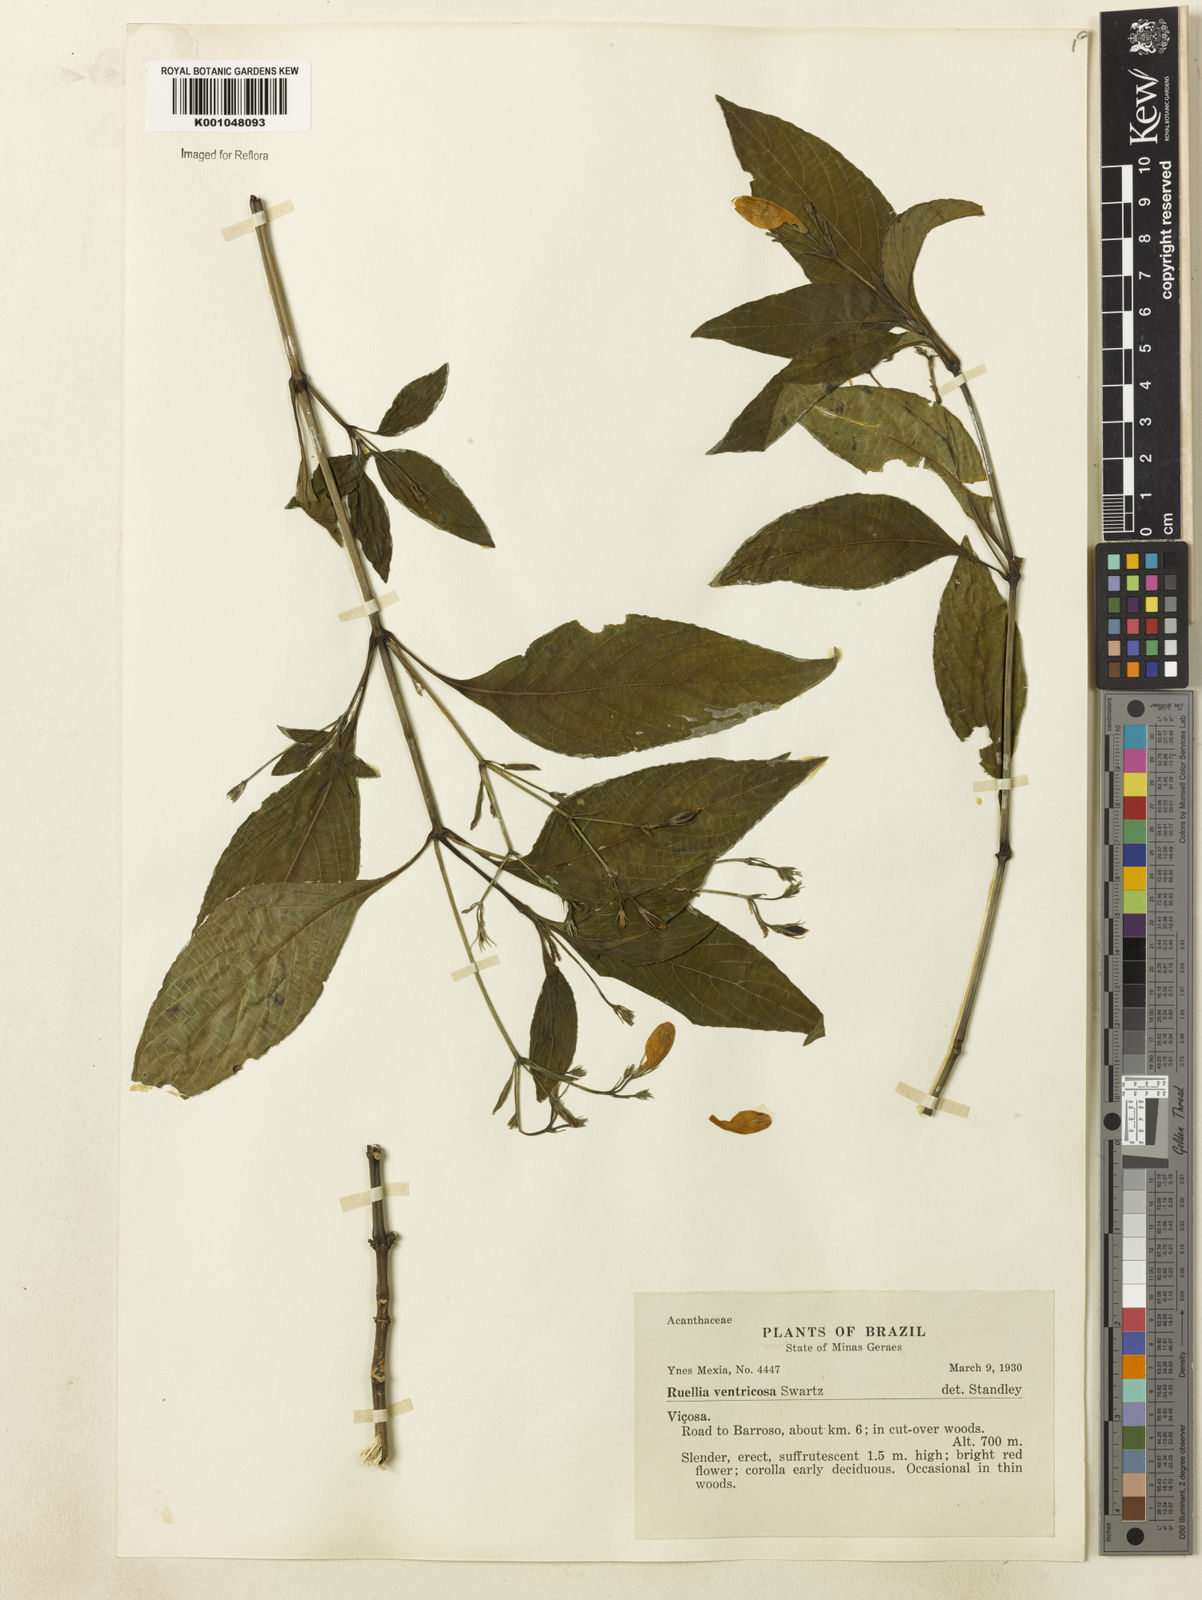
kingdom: Plantae
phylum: Tracheophyta
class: Magnoliopsida
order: Lamiales
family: Acanthaceae
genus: Ruellia
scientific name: Ruellia brevifolia
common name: Tropical wild petunia
